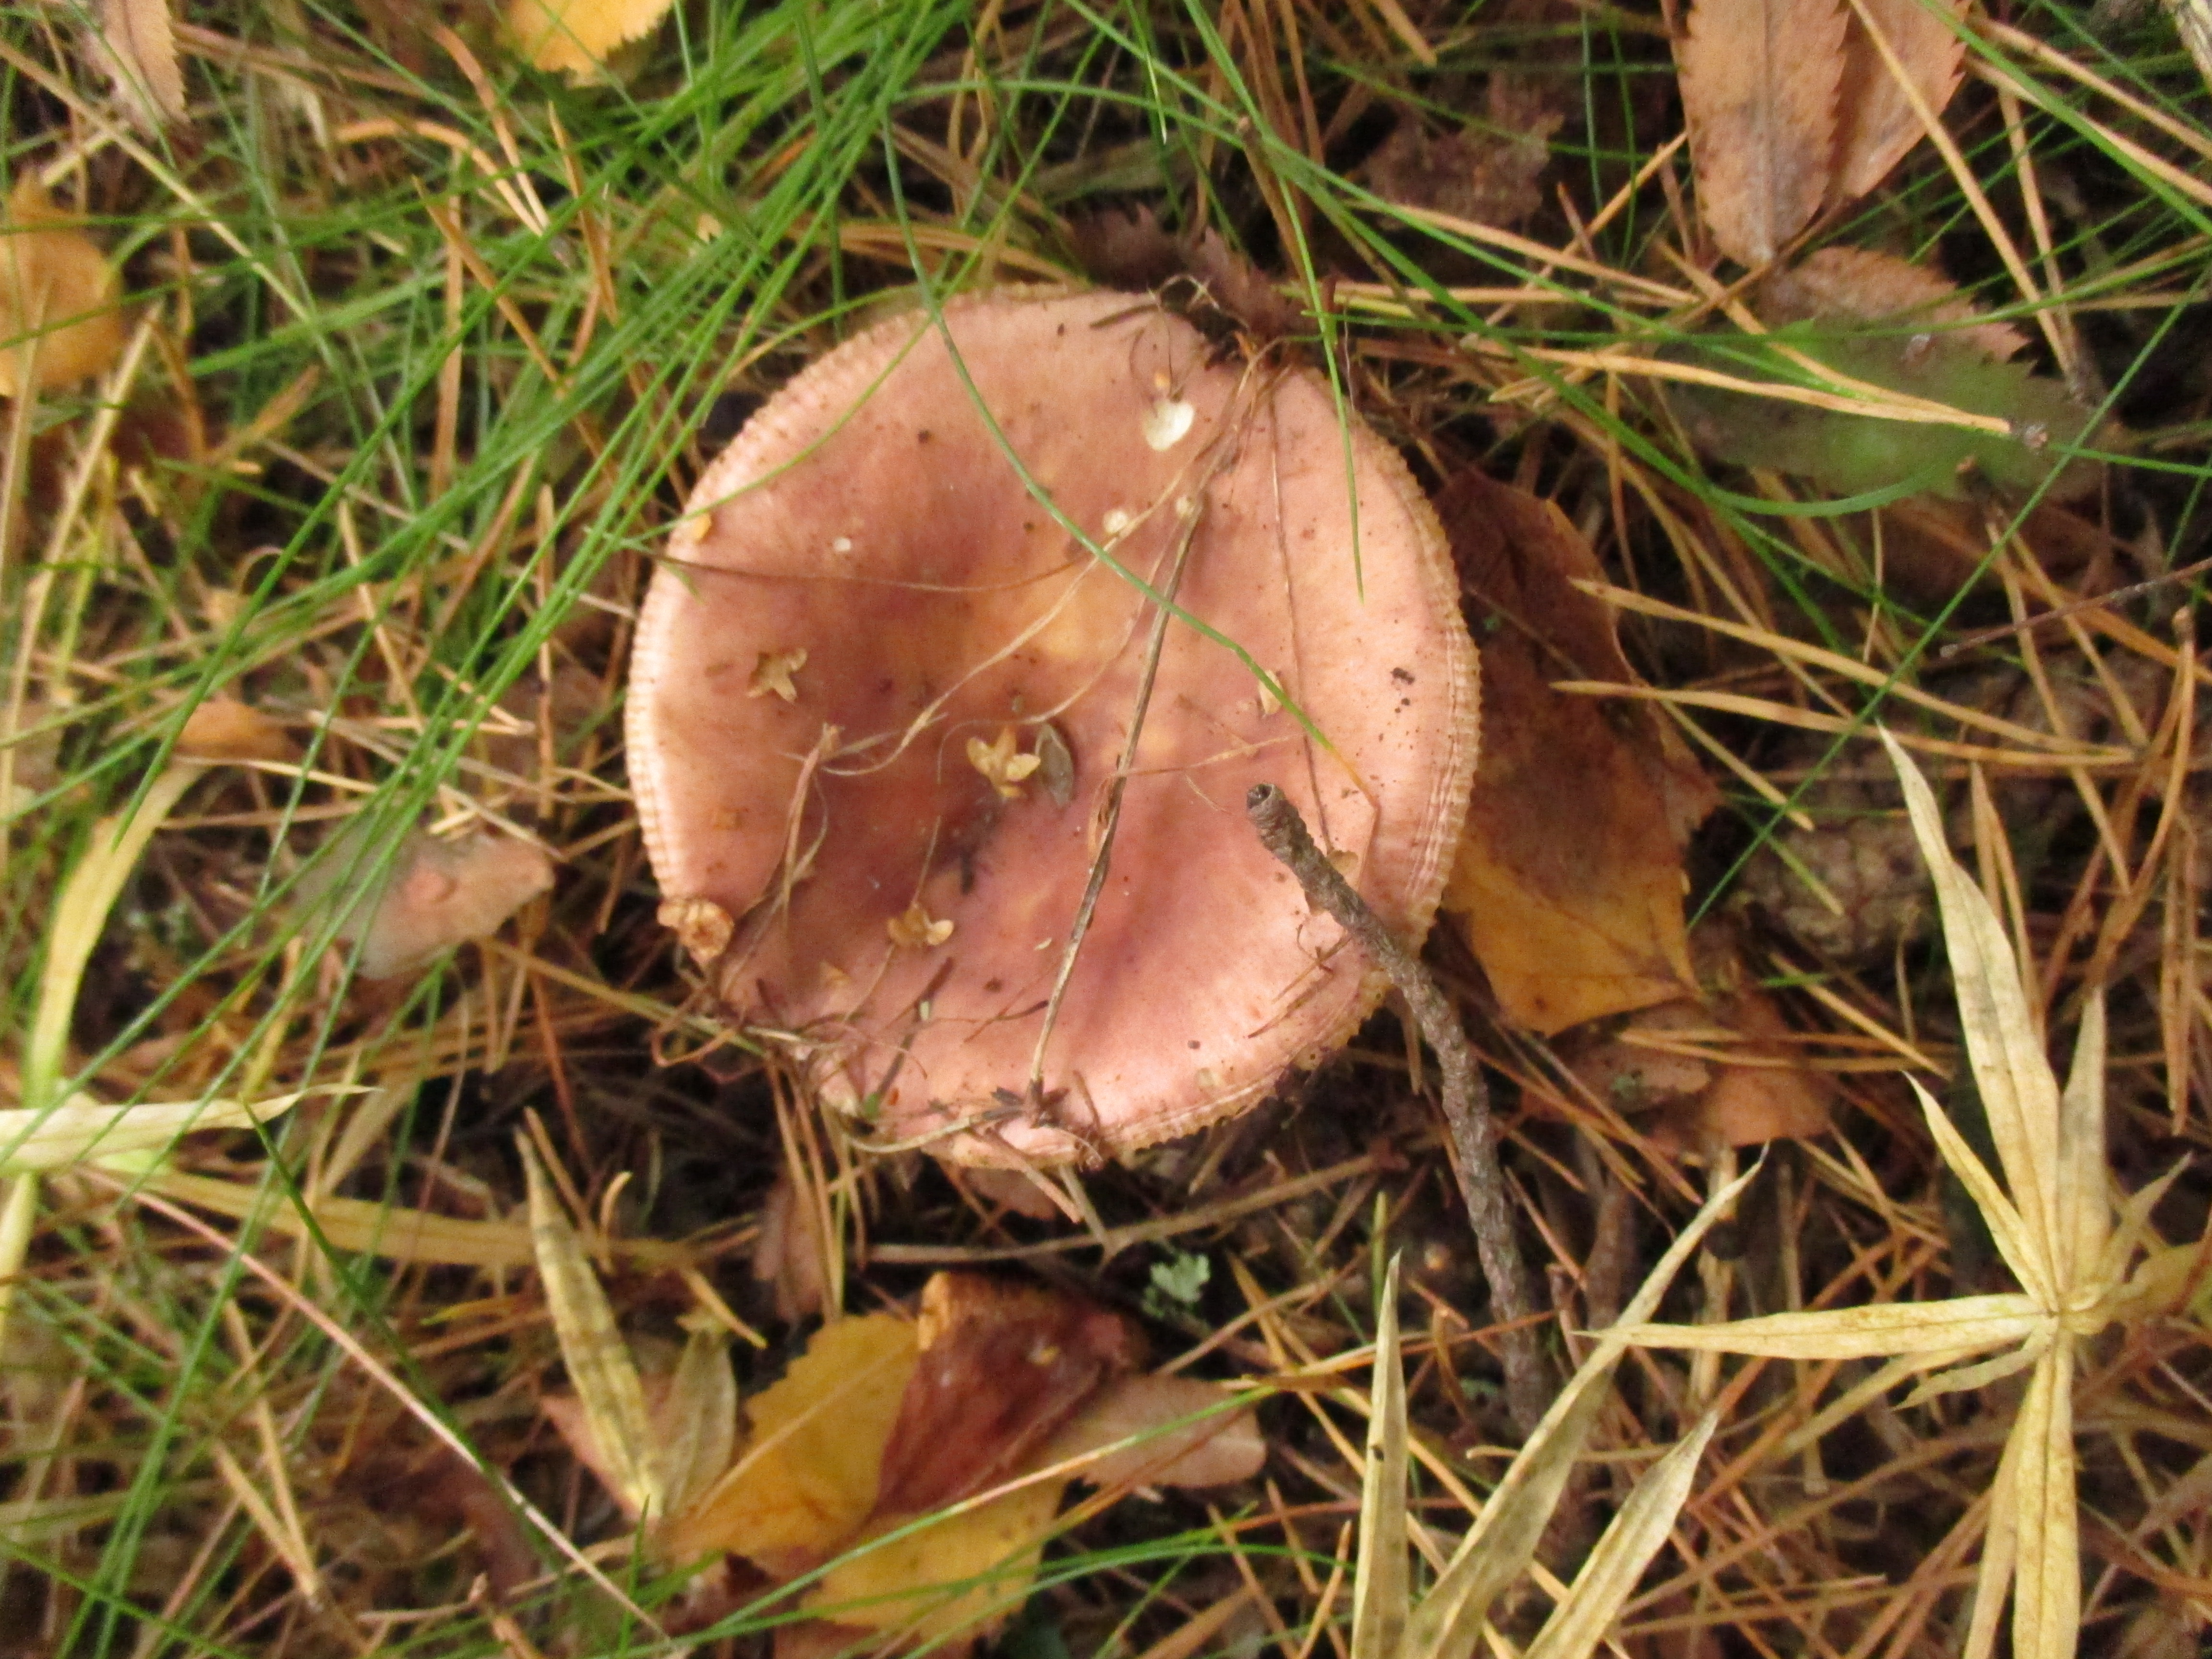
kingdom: Fungi
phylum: Basidiomycota
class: Agaricomycetes
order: Russulales
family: Russulaceae
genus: Russula
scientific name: Russula vesca
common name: Bare-toothed russula
